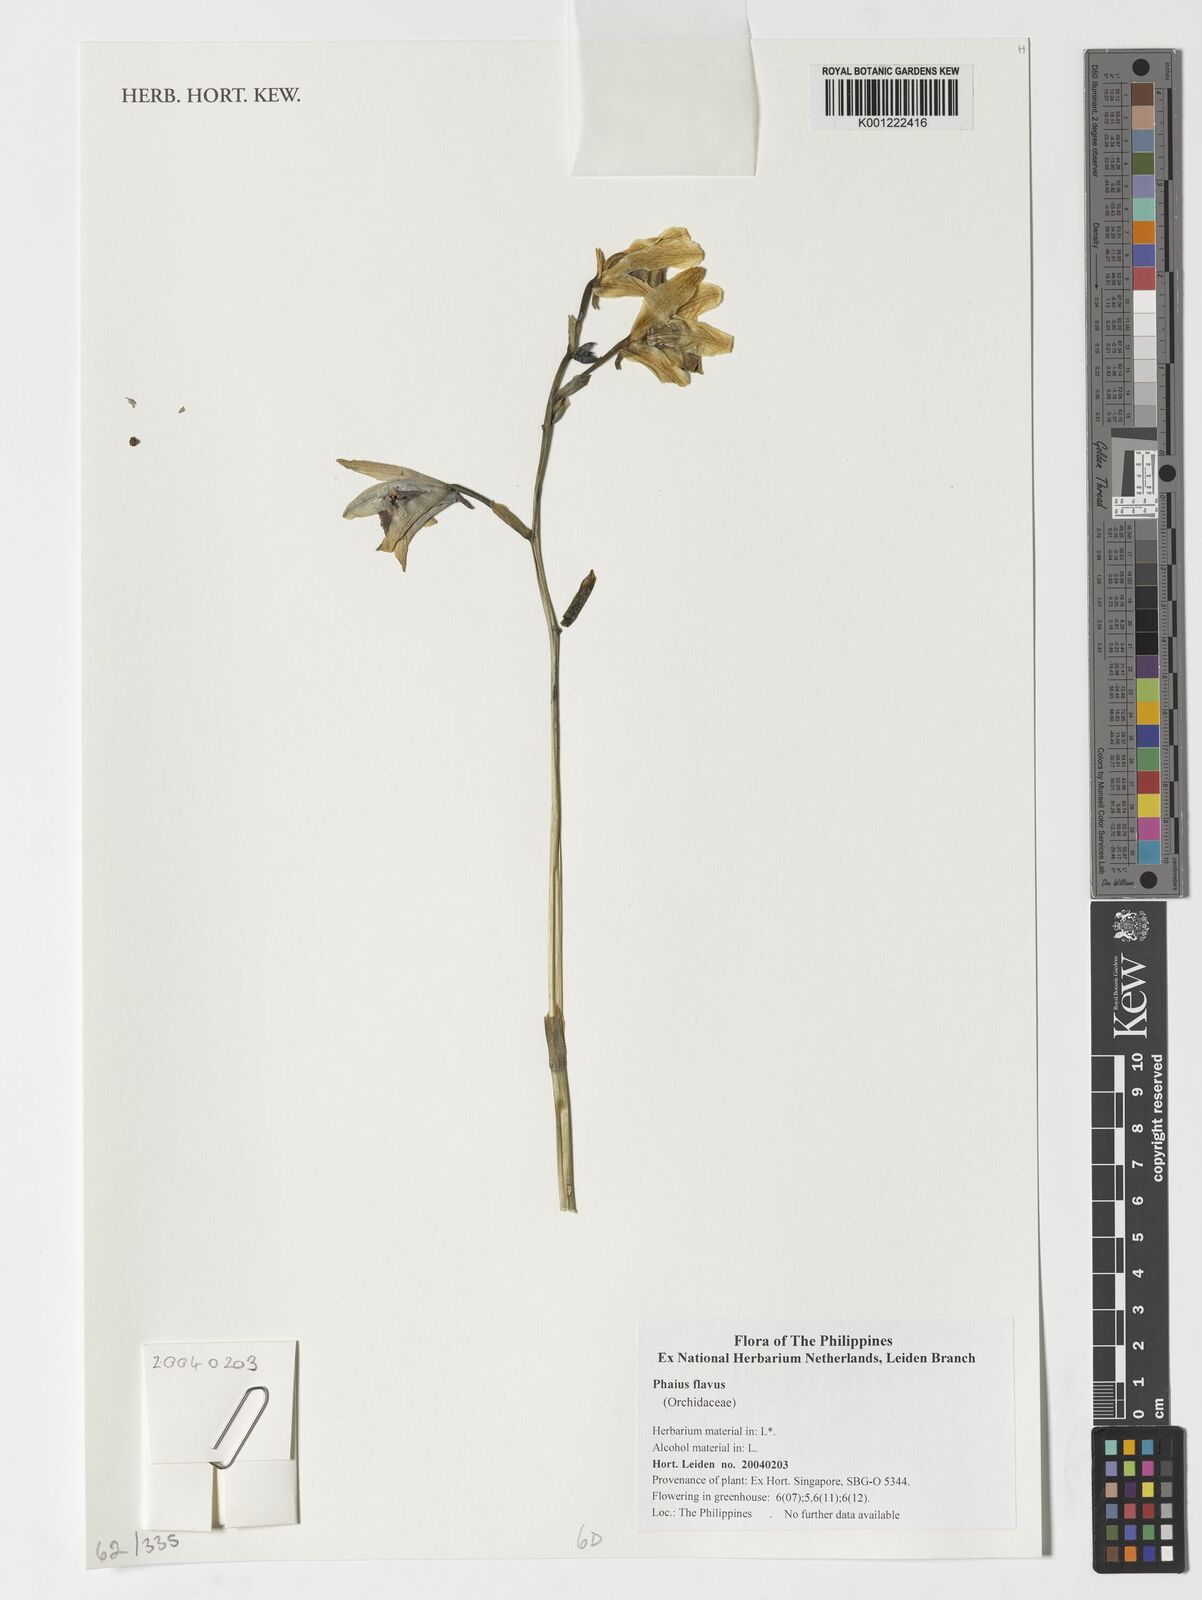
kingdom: Plantae
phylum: Tracheophyta
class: Liliopsida
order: Asparagales
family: Orchidaceae
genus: Calanthe
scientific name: Calanthe woodfordii
